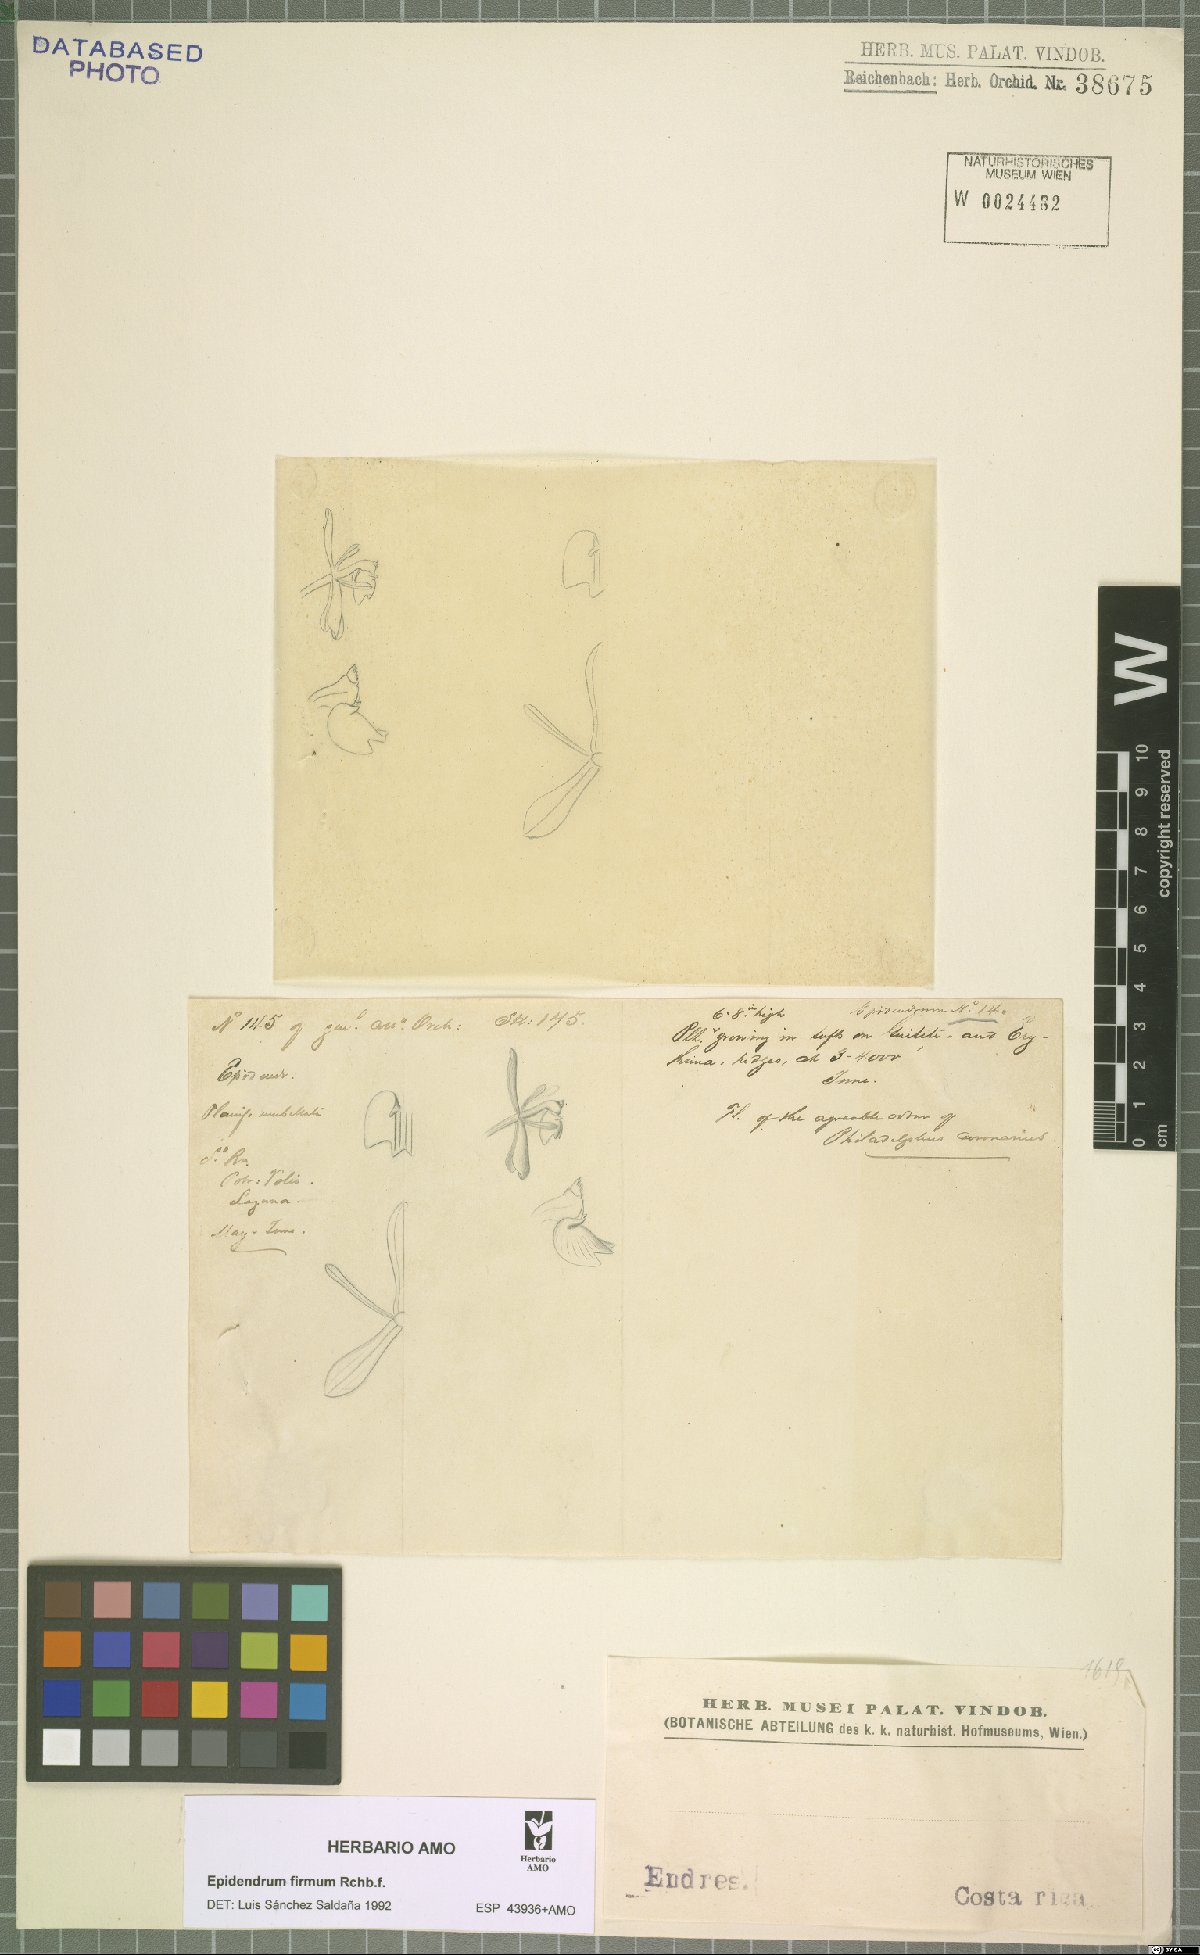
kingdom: Plantae
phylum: Tracheophyta
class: Liliopsida
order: Asparagales
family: Orchidaceae
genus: Epidendrum
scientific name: Epidendrum firmum
